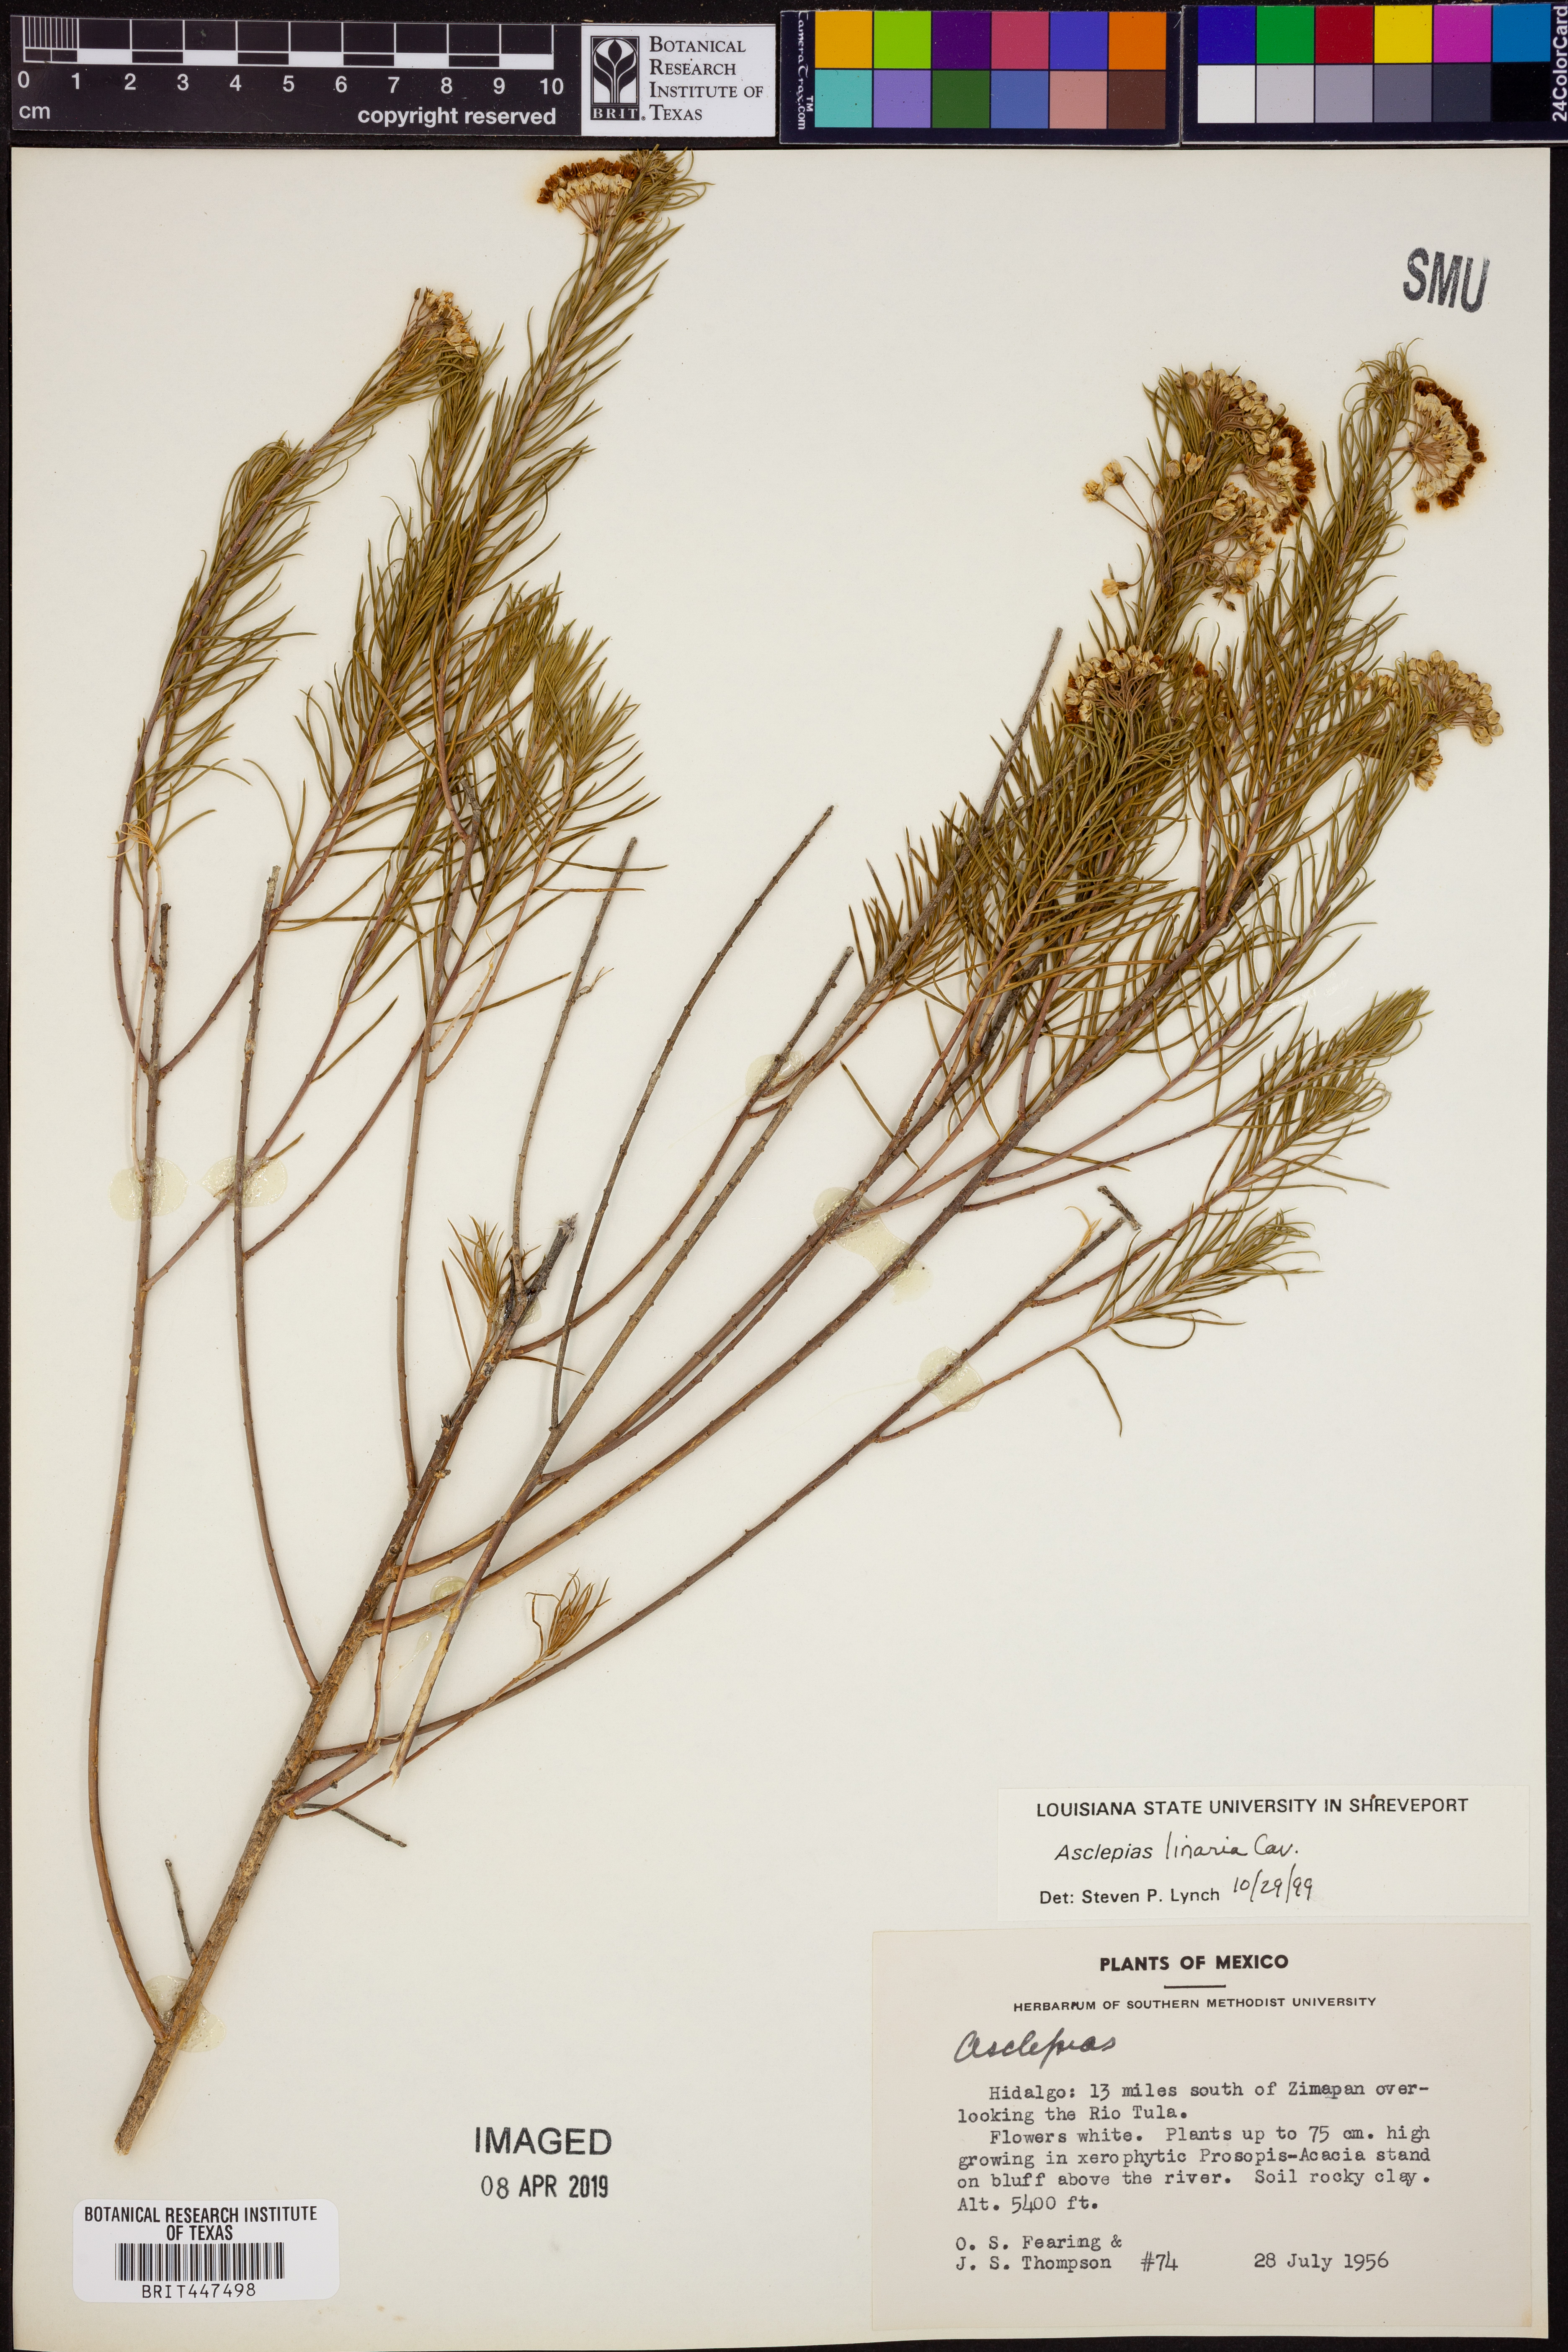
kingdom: Plantae
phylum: Tracheophyta
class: Magnoliopsida
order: Gentianales
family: Apocynaceae
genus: Asclepias
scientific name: Asclepias linaria
